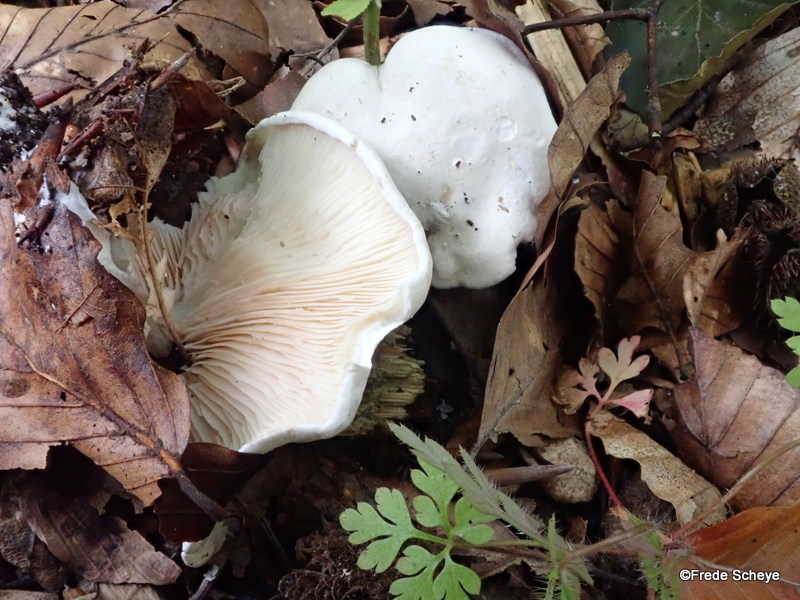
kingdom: Fungi
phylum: Basidiomycota
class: Agaricomycetes
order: Agaricales
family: Entolomataceae
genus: Clitopilus
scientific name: Clitopilus prunulus
